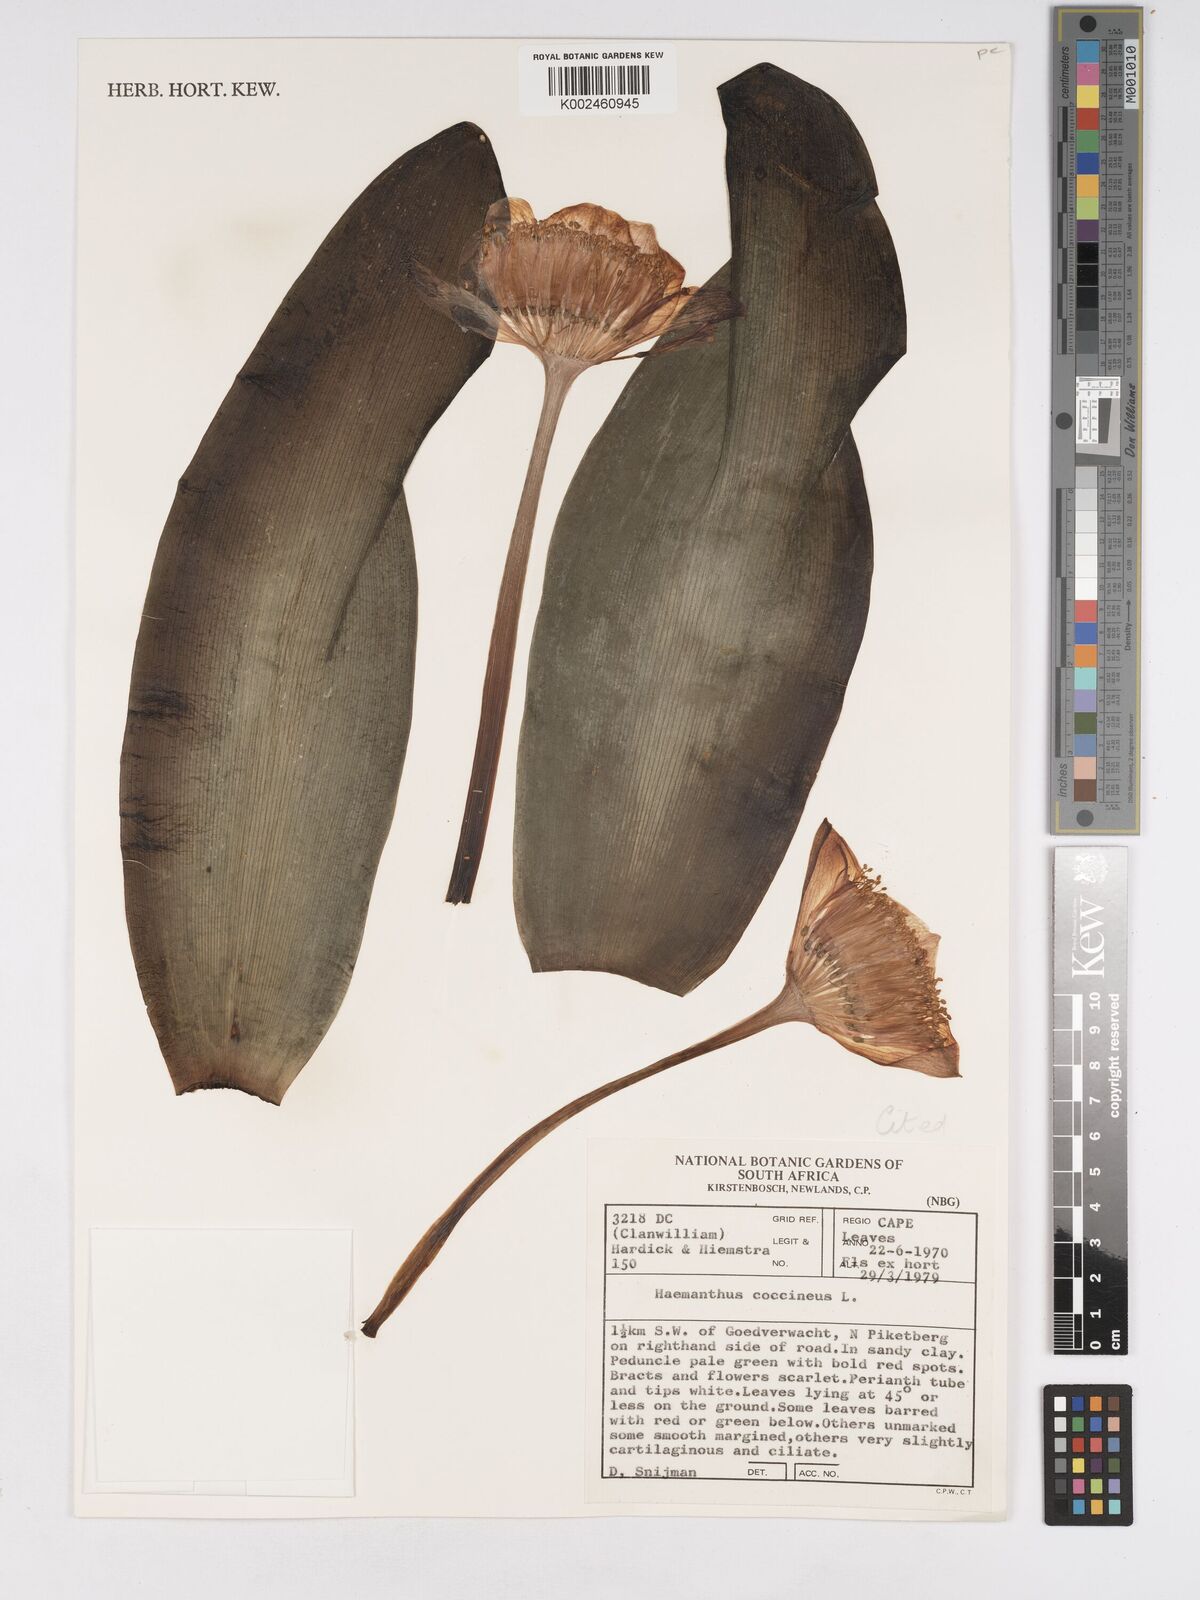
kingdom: Plantae
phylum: Tracheophyta
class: Liliopsida
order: Asparagales
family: Amaryllidaceae
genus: Haemanthus
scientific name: Haemanthus coccineus
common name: Cape-tulip
